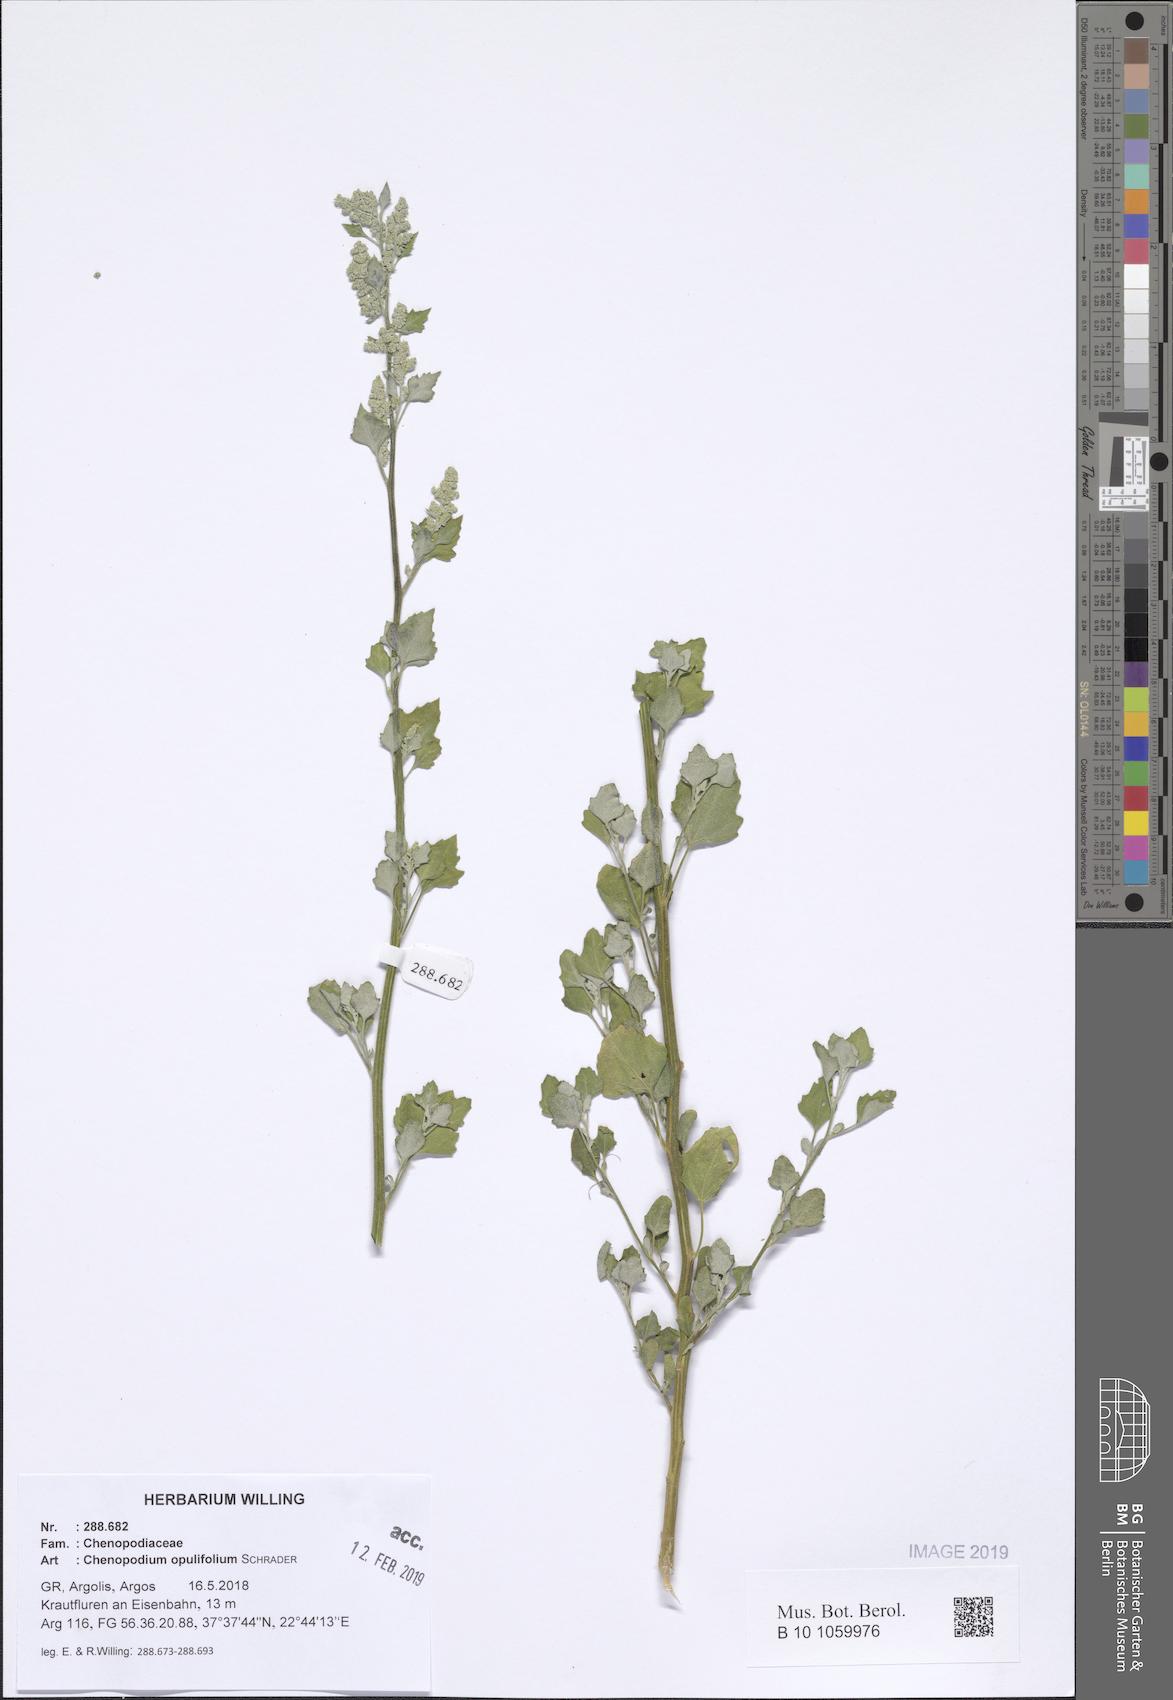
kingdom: Plantae
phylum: Tracheophyta
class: Magnoliopsida
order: Caryophyllales
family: Amaranthaceae
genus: Chenopodium
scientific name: Chenopodium opulifolium
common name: Grey goosefoot
